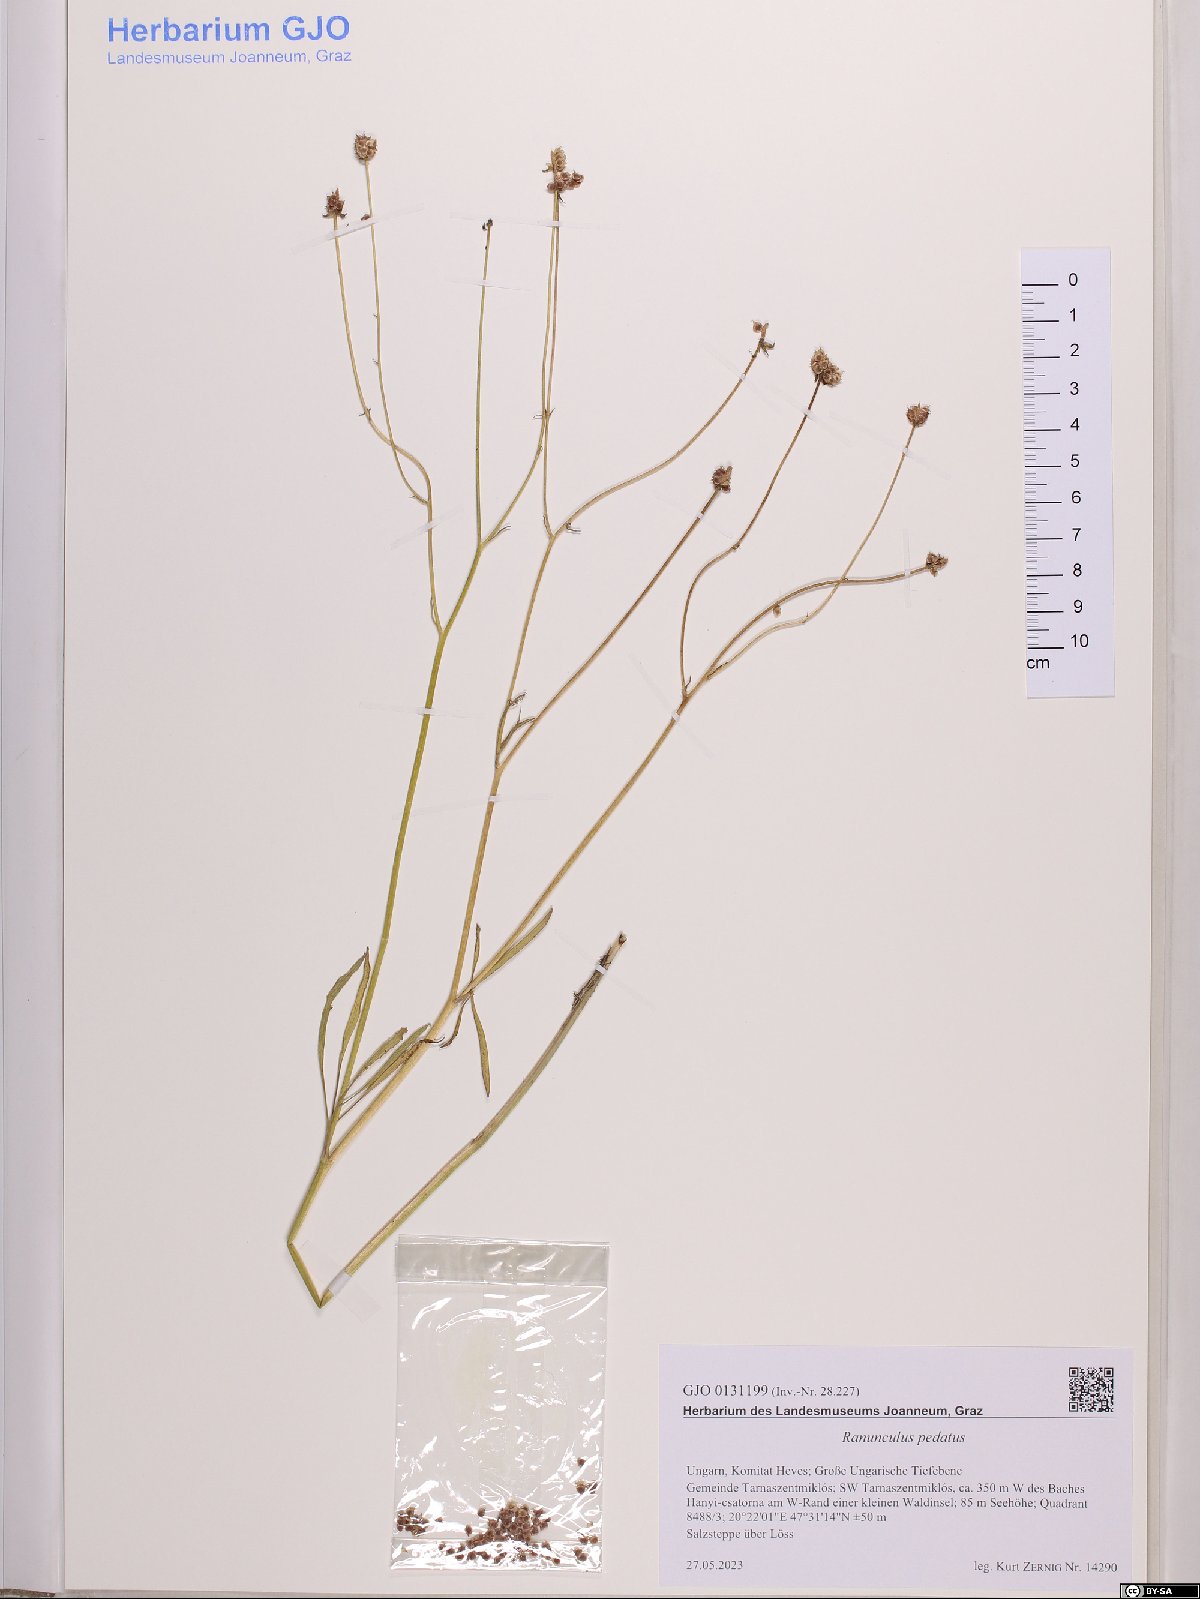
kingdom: Plantae
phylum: Tracheophyta
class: Magnoliopsida
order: Ranunculales
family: Ranunculaceae
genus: Ranunculus
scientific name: Ranunculus pedatus
